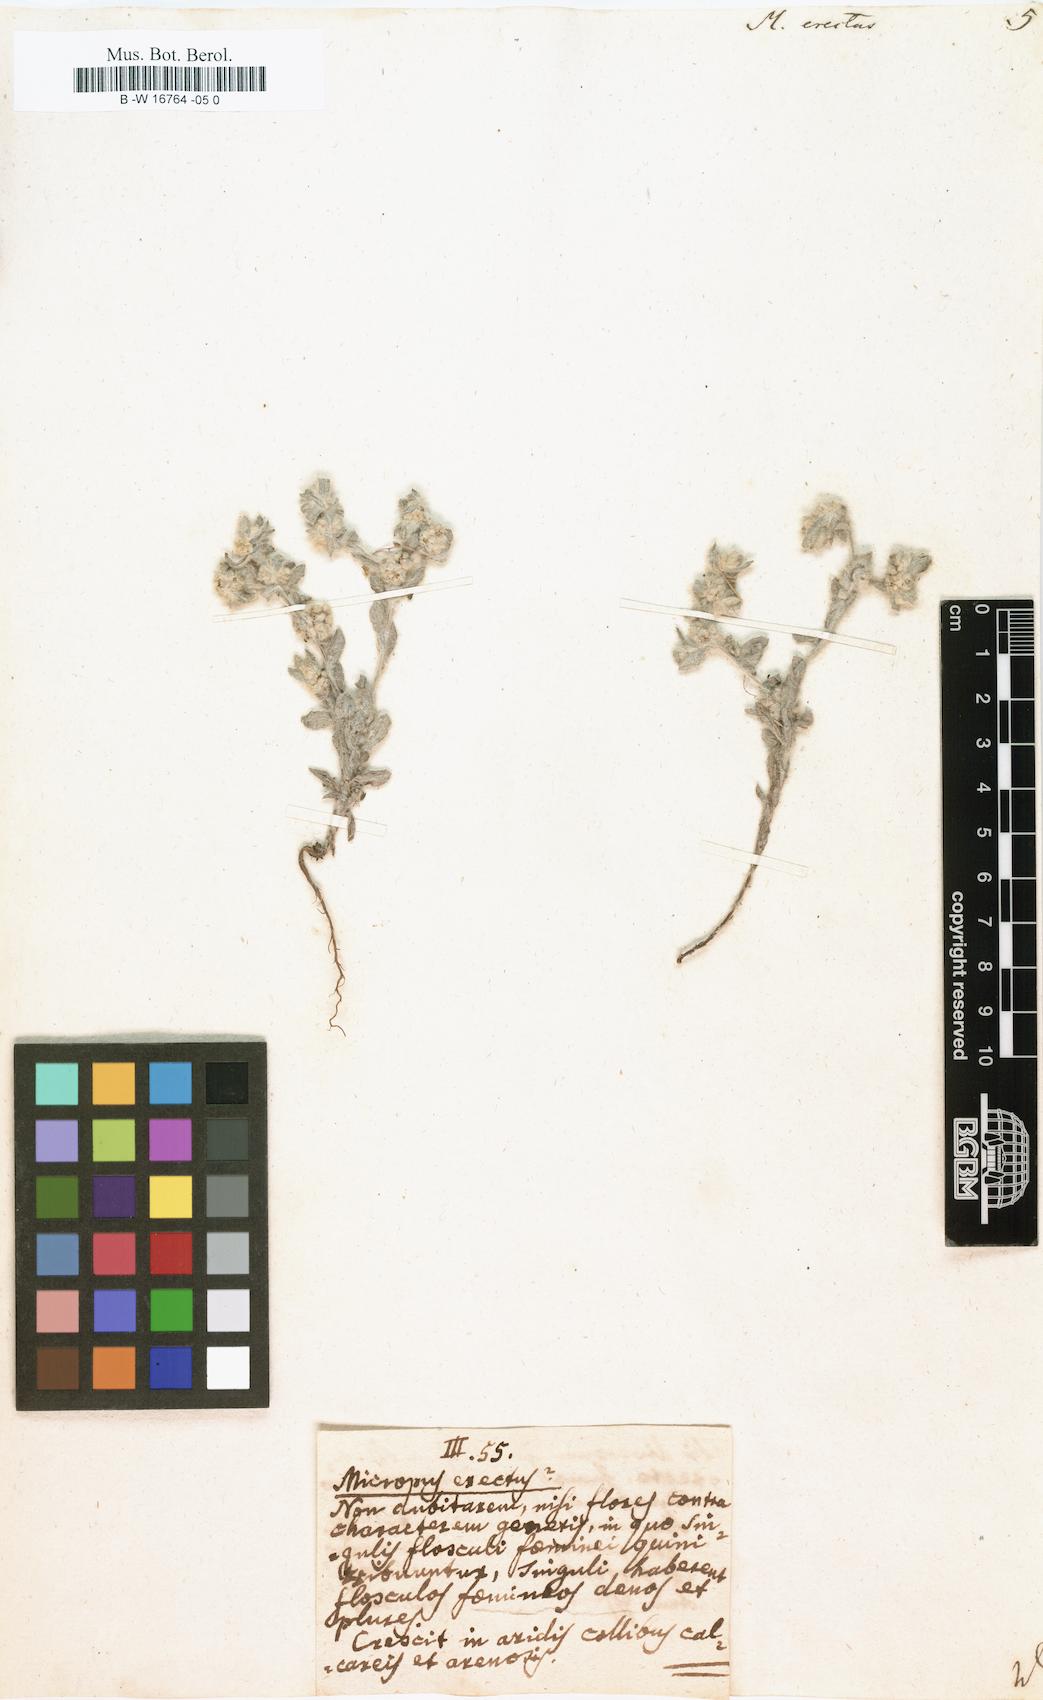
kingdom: Plantae
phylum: Tracheophyta
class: Magnoliopsida
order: Asterales
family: Asteraceae
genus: Bombycilaena
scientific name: Bombycilaena
